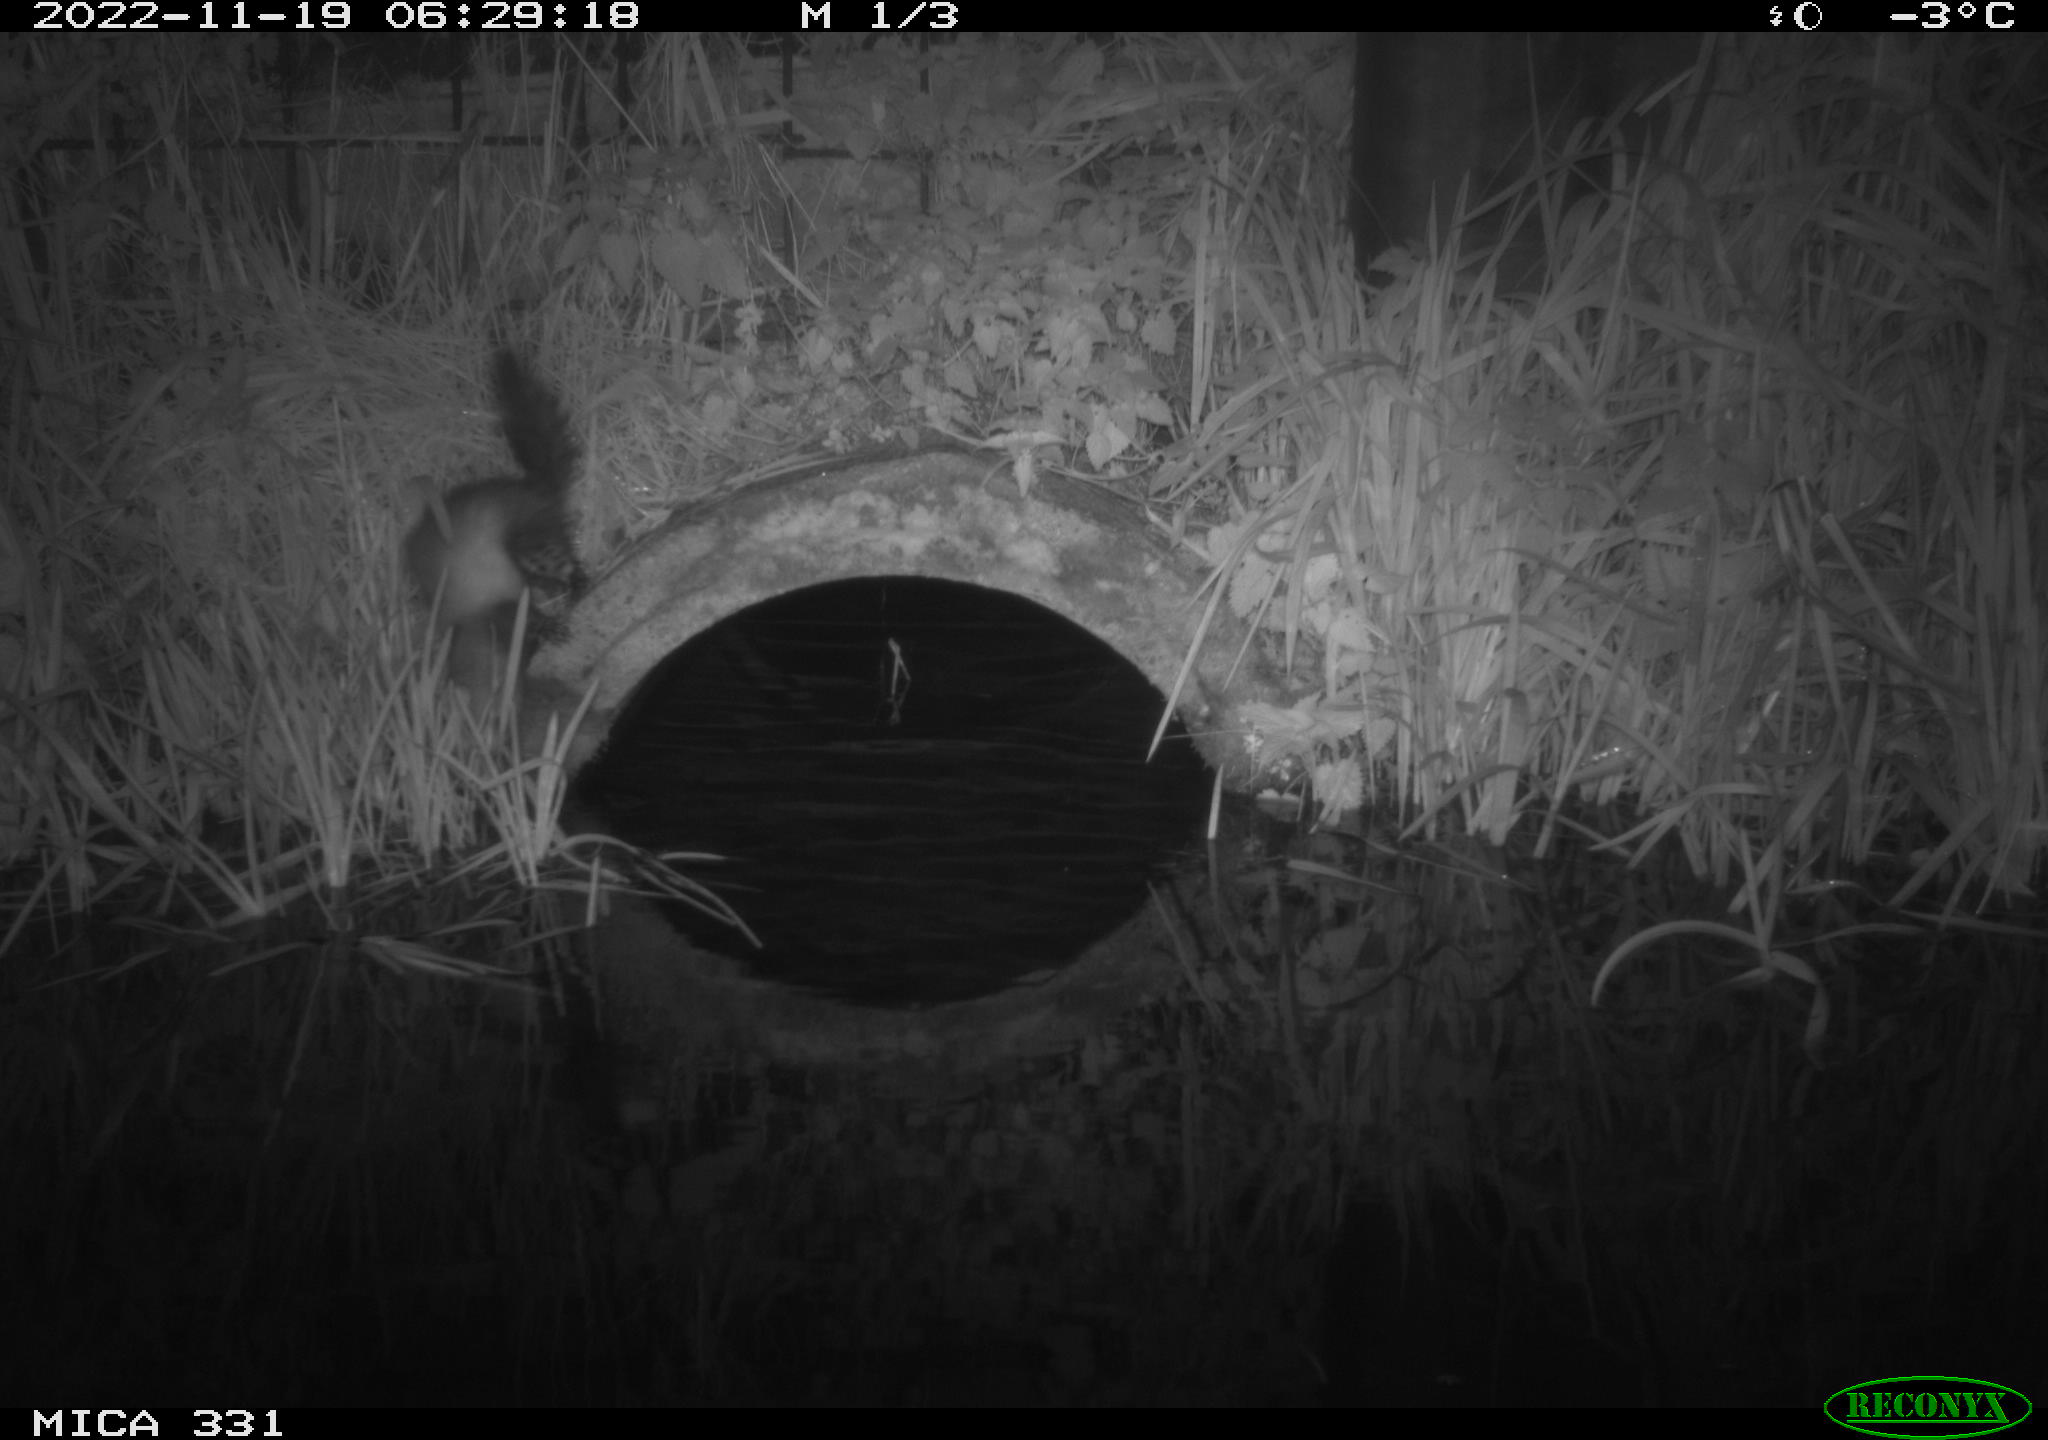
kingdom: Animalia
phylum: Chordata
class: Mammalia
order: Carnivora
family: Mustelidae
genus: Martes
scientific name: Martes foina
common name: Beech marten
